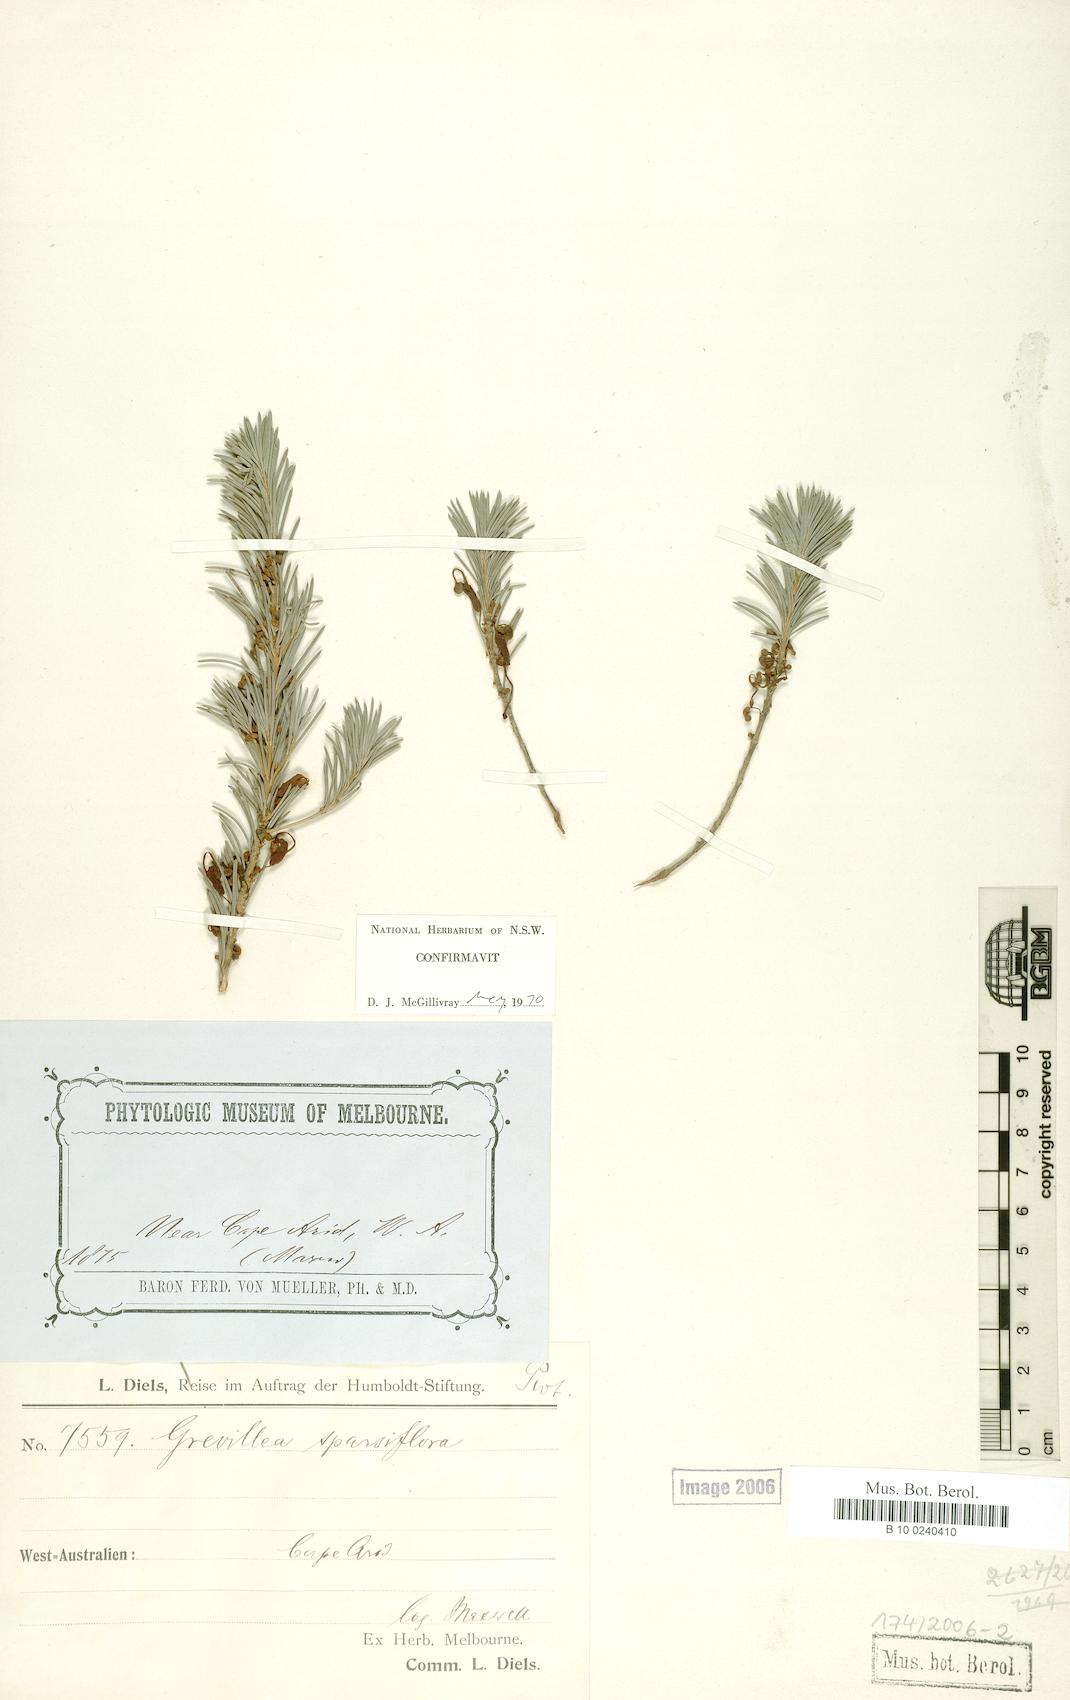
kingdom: Plantae
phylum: Tracheophyta
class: Magnoliopsida
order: Proteales
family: Proteaceae
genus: Grevillea
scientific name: Grevillea sparsiflora
